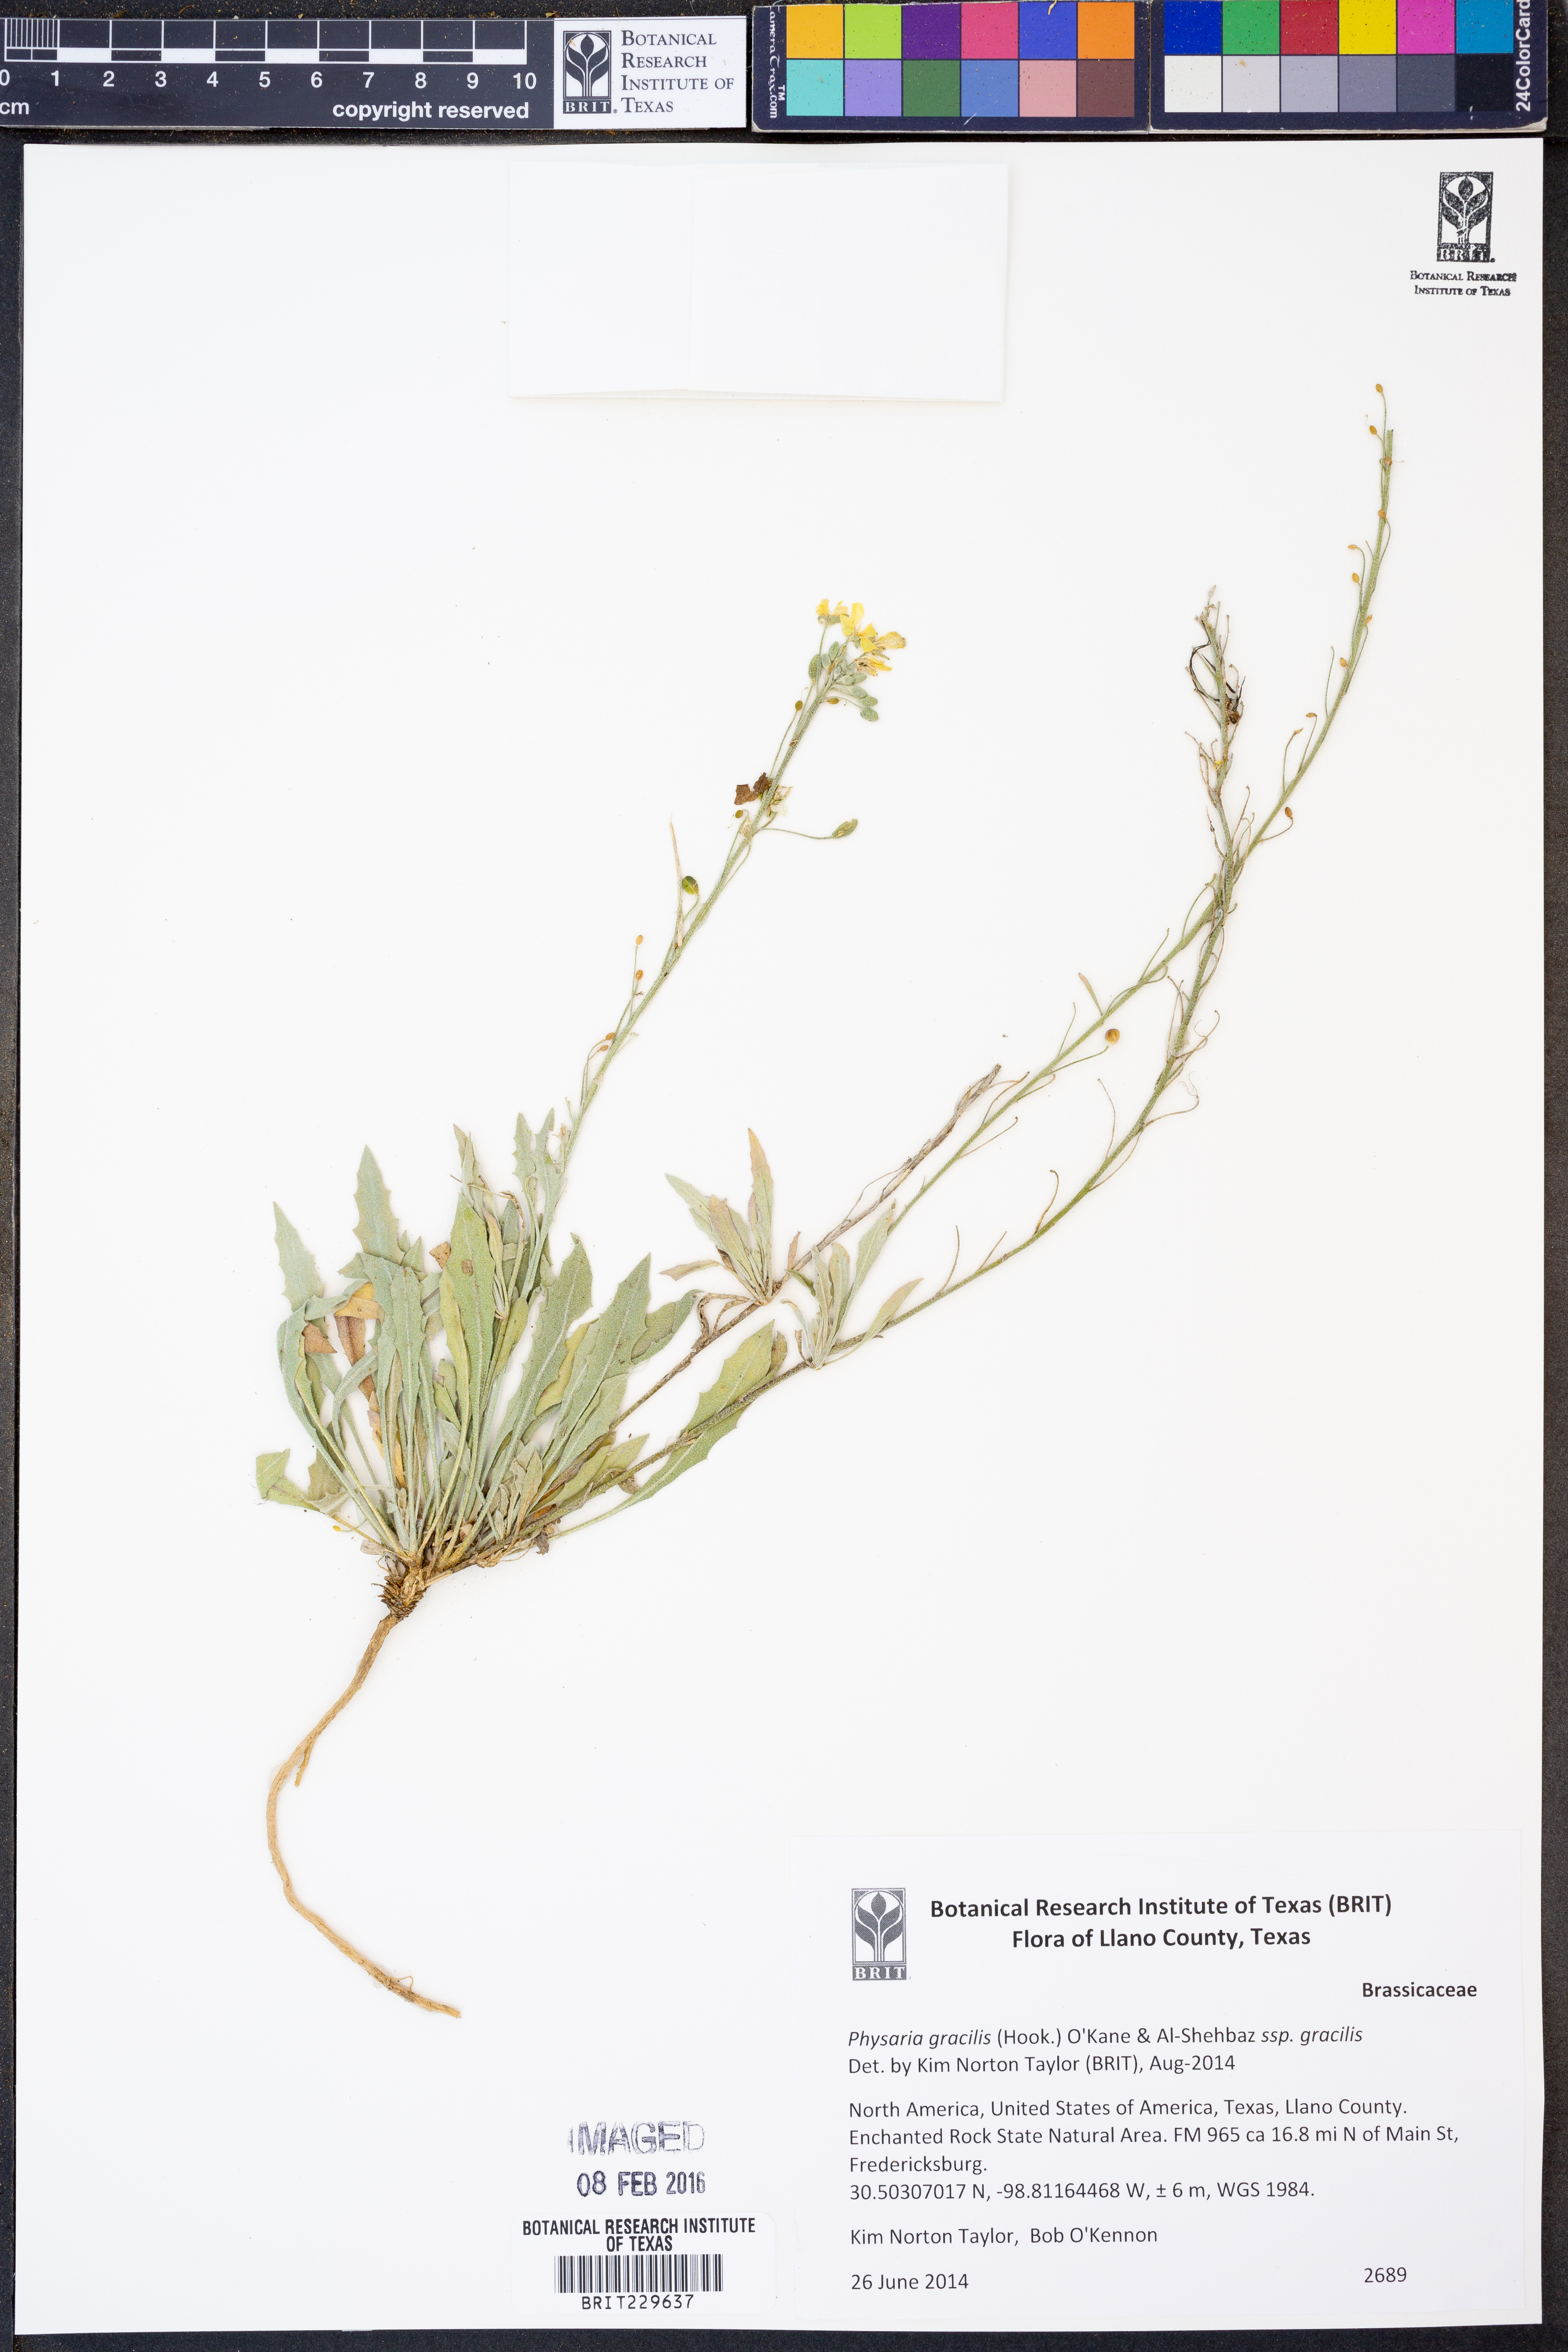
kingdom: Plantae
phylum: Tracheophyta
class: Magnoliopsida
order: Brassicales
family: Brassicaceae
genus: Physaria
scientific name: Physaria gracilis
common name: Spreading bladderpod
